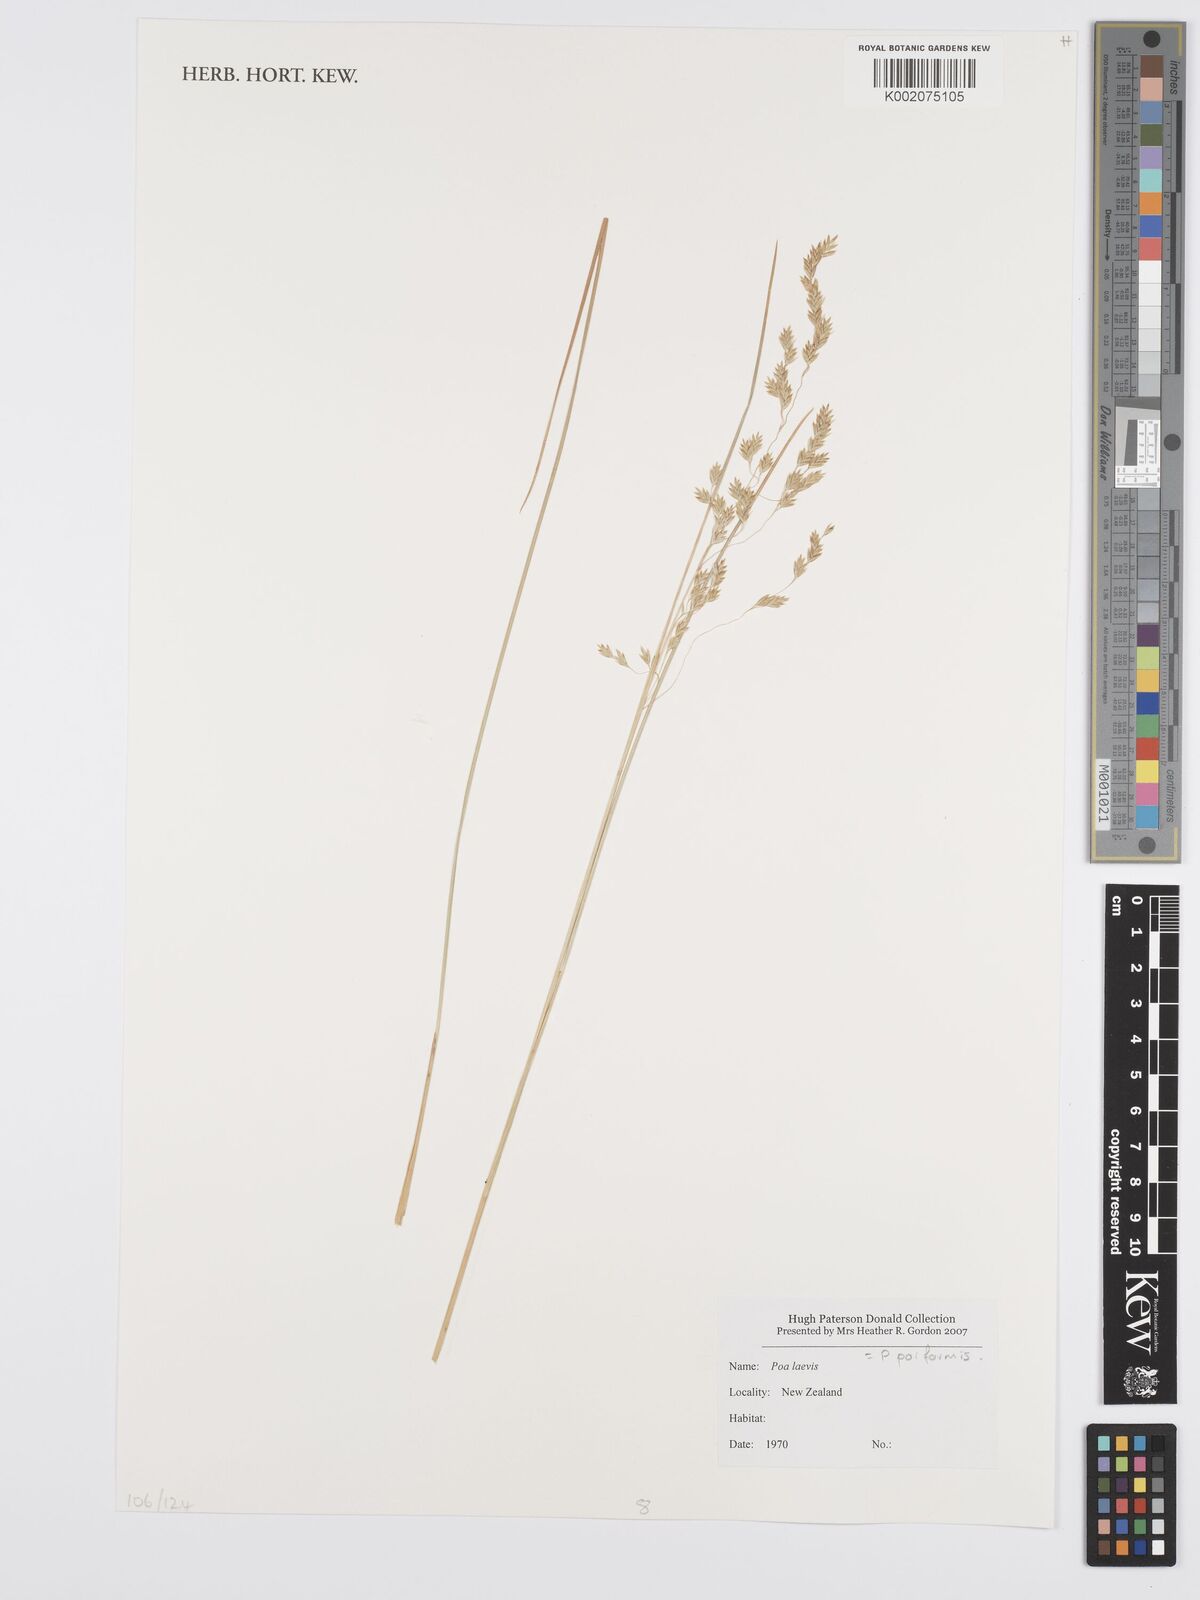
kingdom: Plantae
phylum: Tracheophyta
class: Liliopsida
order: Poales
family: Poaceae
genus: Poa
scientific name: Poa poiformis
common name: Tussock poa
